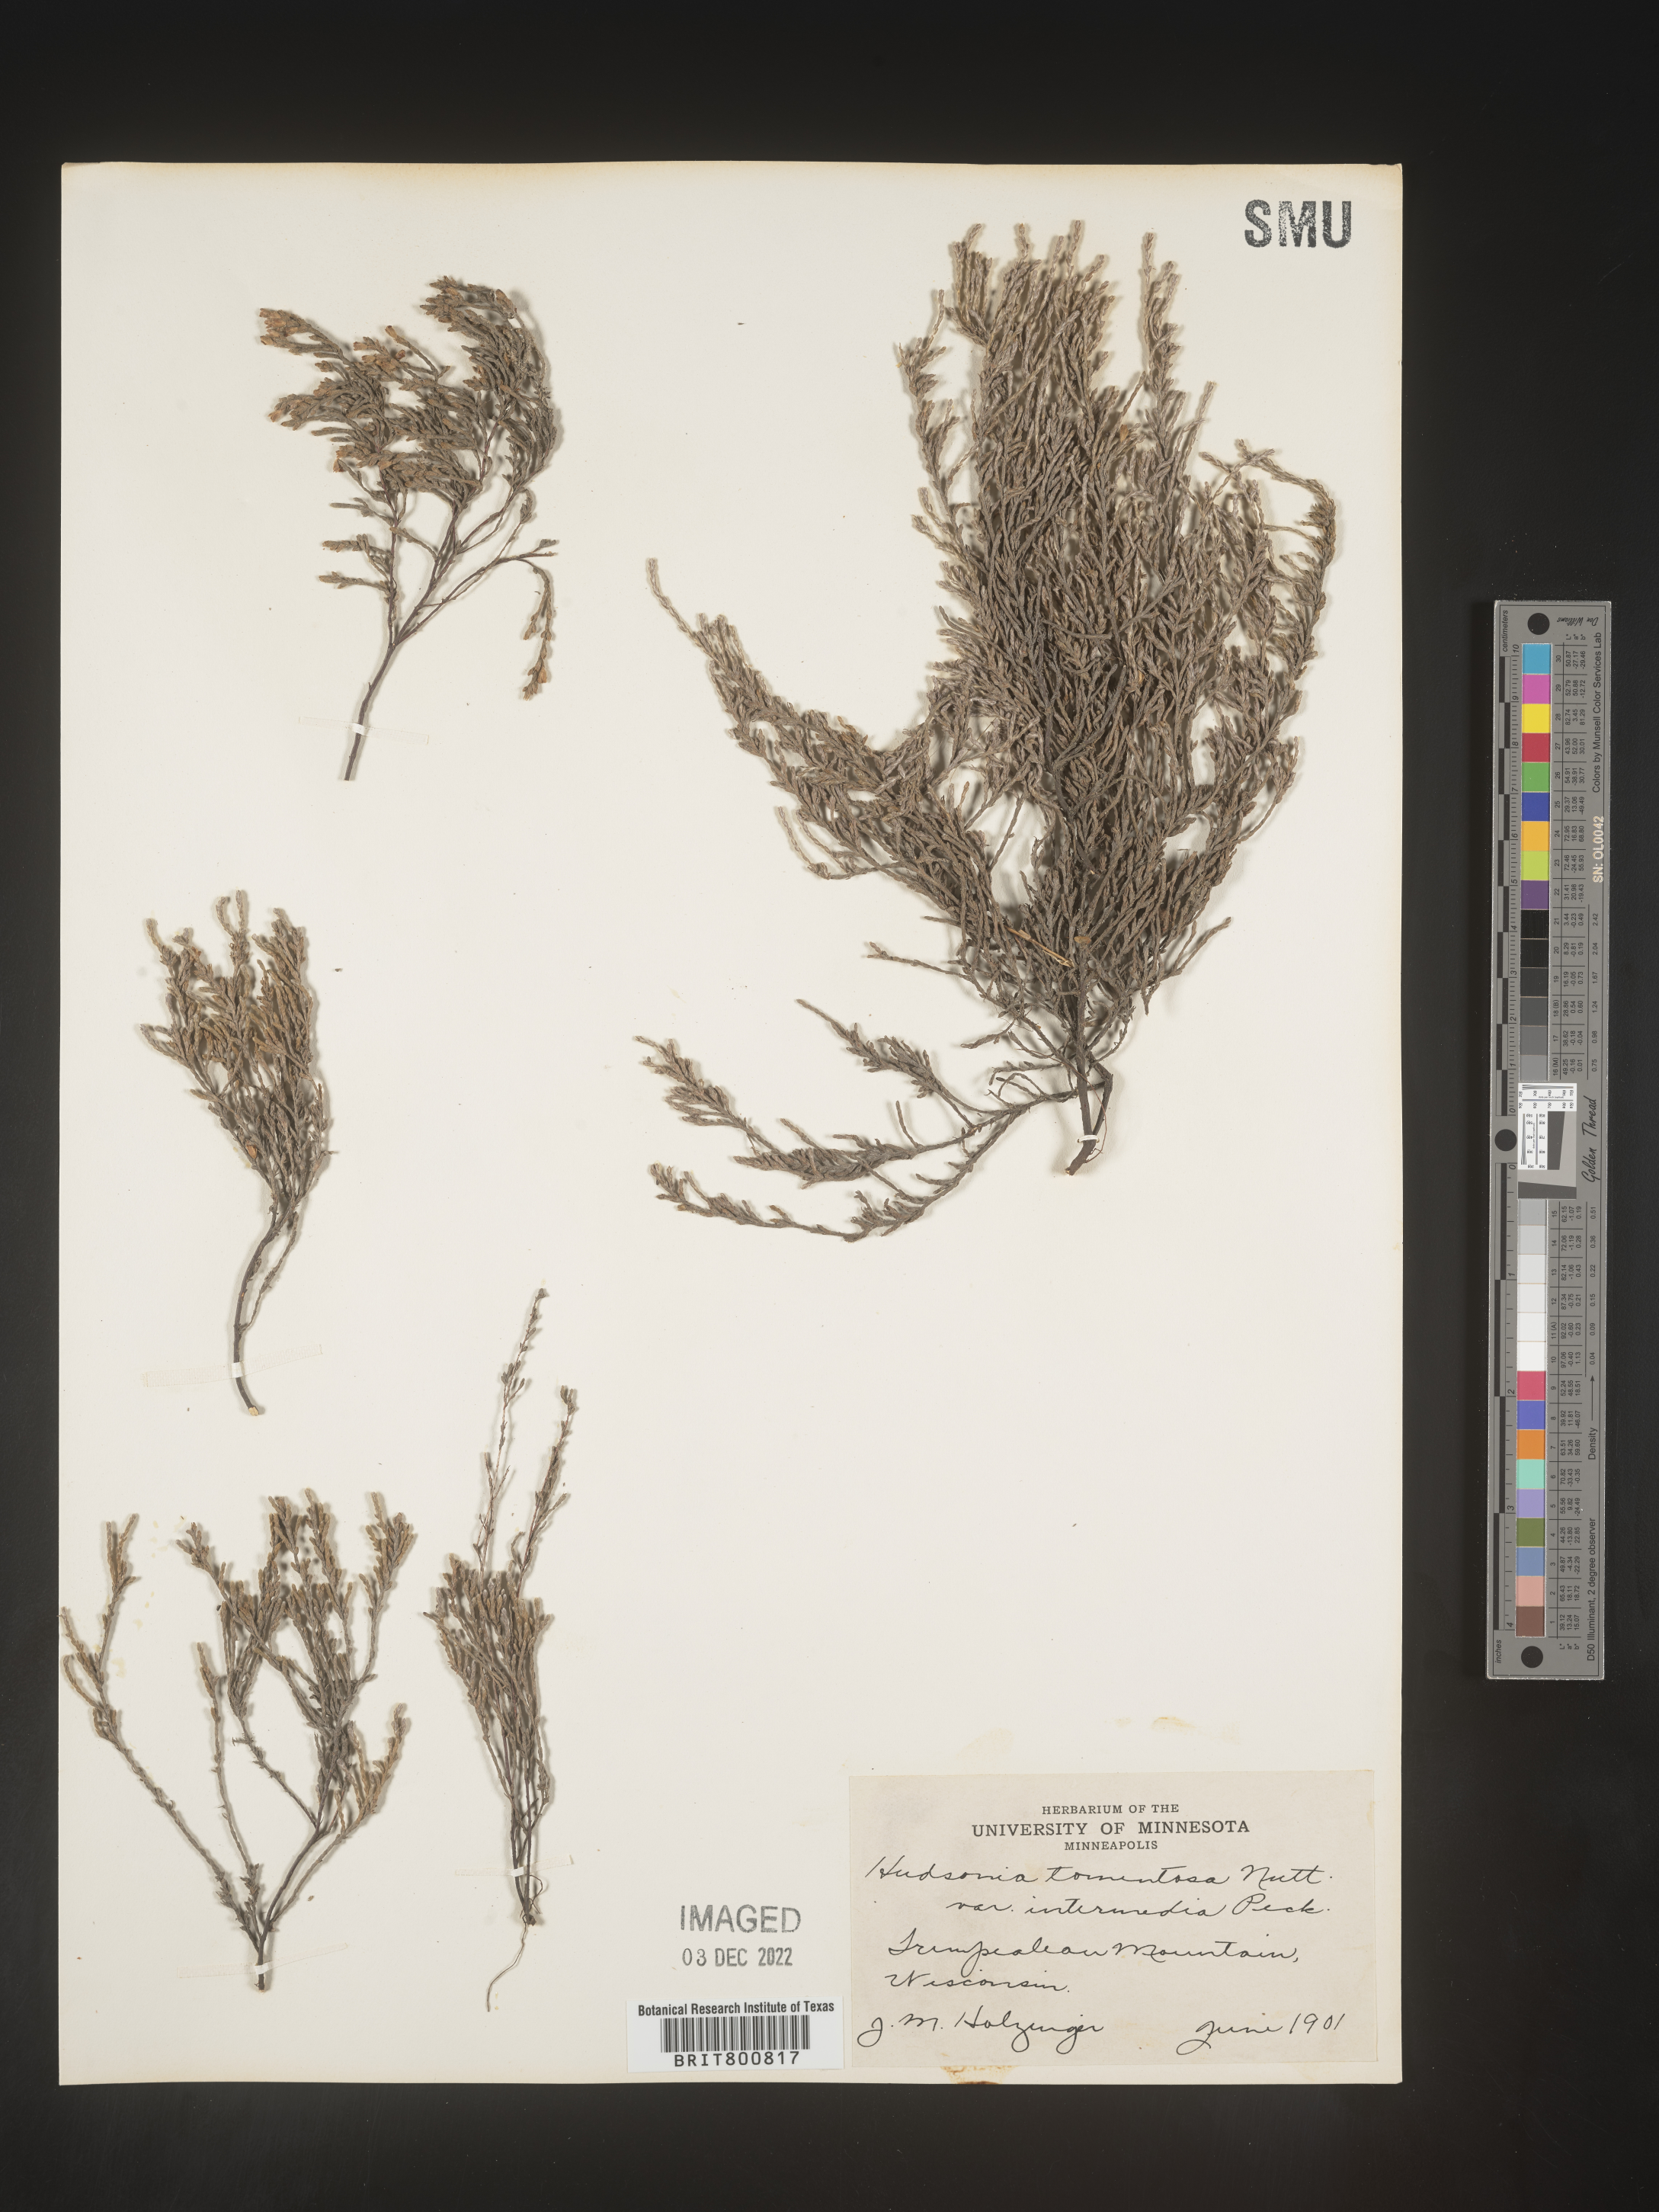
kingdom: Plantae
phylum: Tracheophyta
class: Magnoliopsida
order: Malvales
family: Cistaceae
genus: Hudsonia
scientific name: Hudsonia tomentosa
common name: Beach-heath
